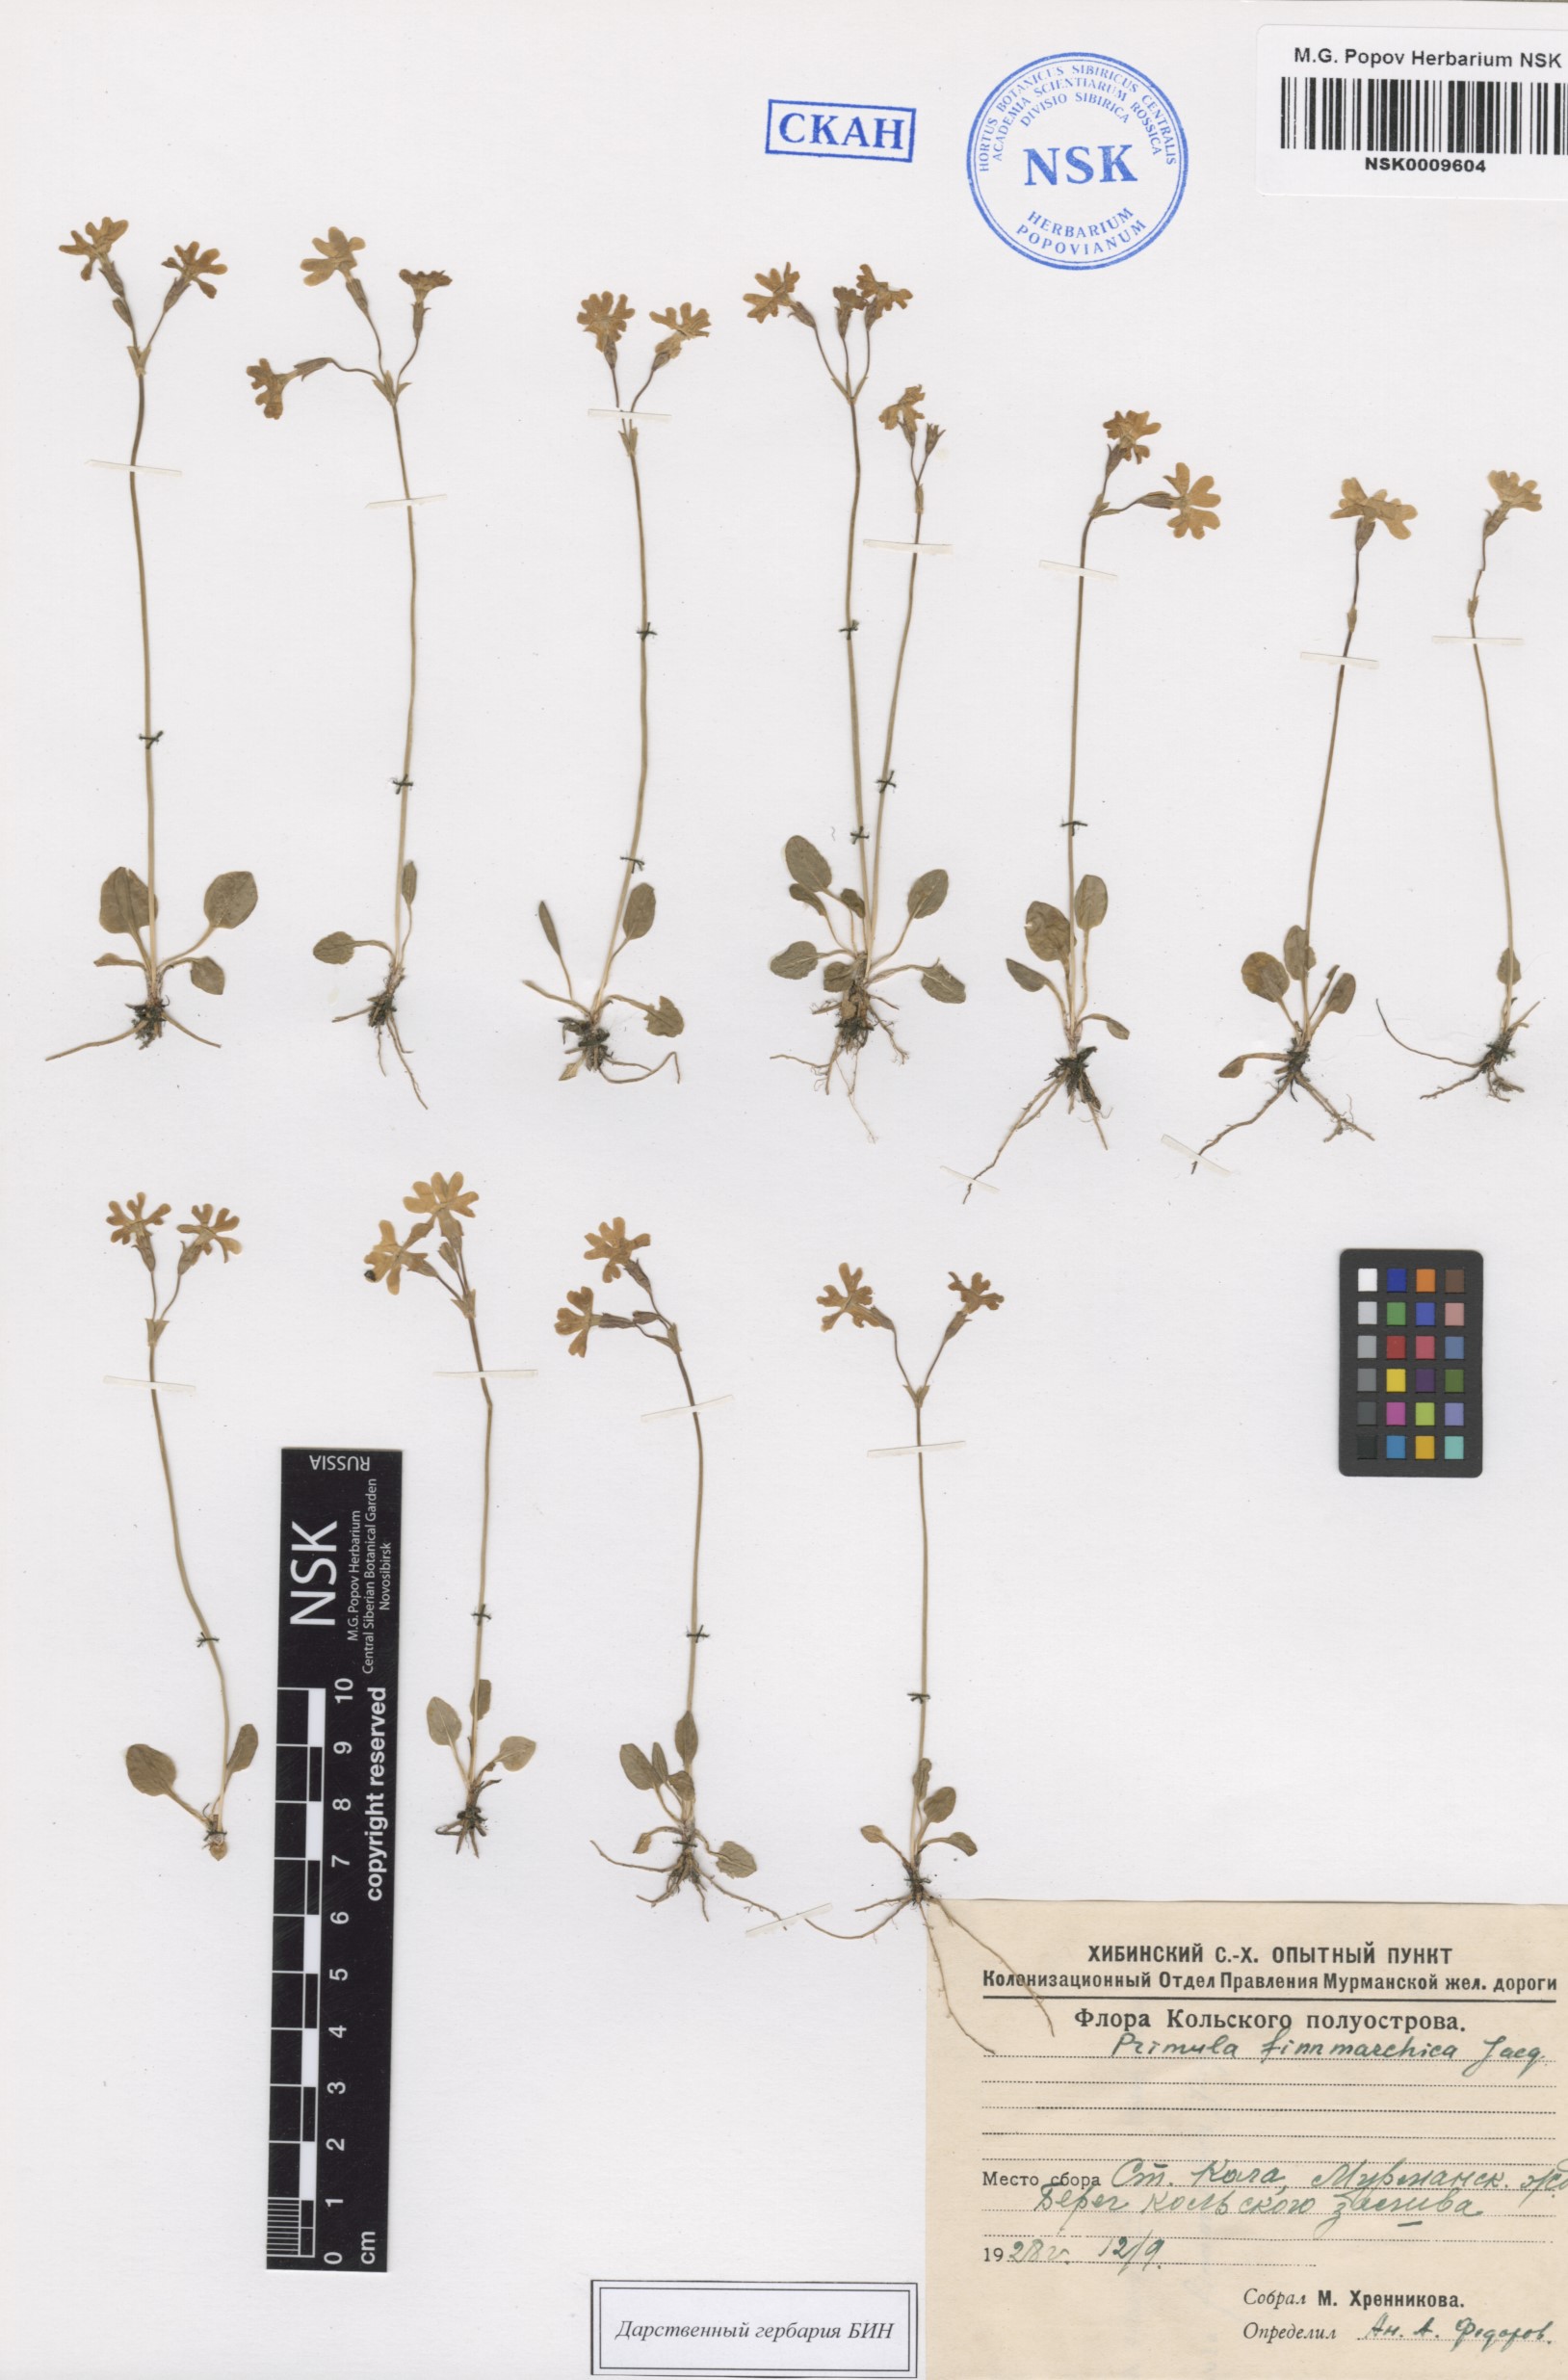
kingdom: Plantae
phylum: Tracheophyta
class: Magnoliopsida
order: Ericales
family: Primulaceae
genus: Primula
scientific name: Primula nutans
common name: Siberian primrose
